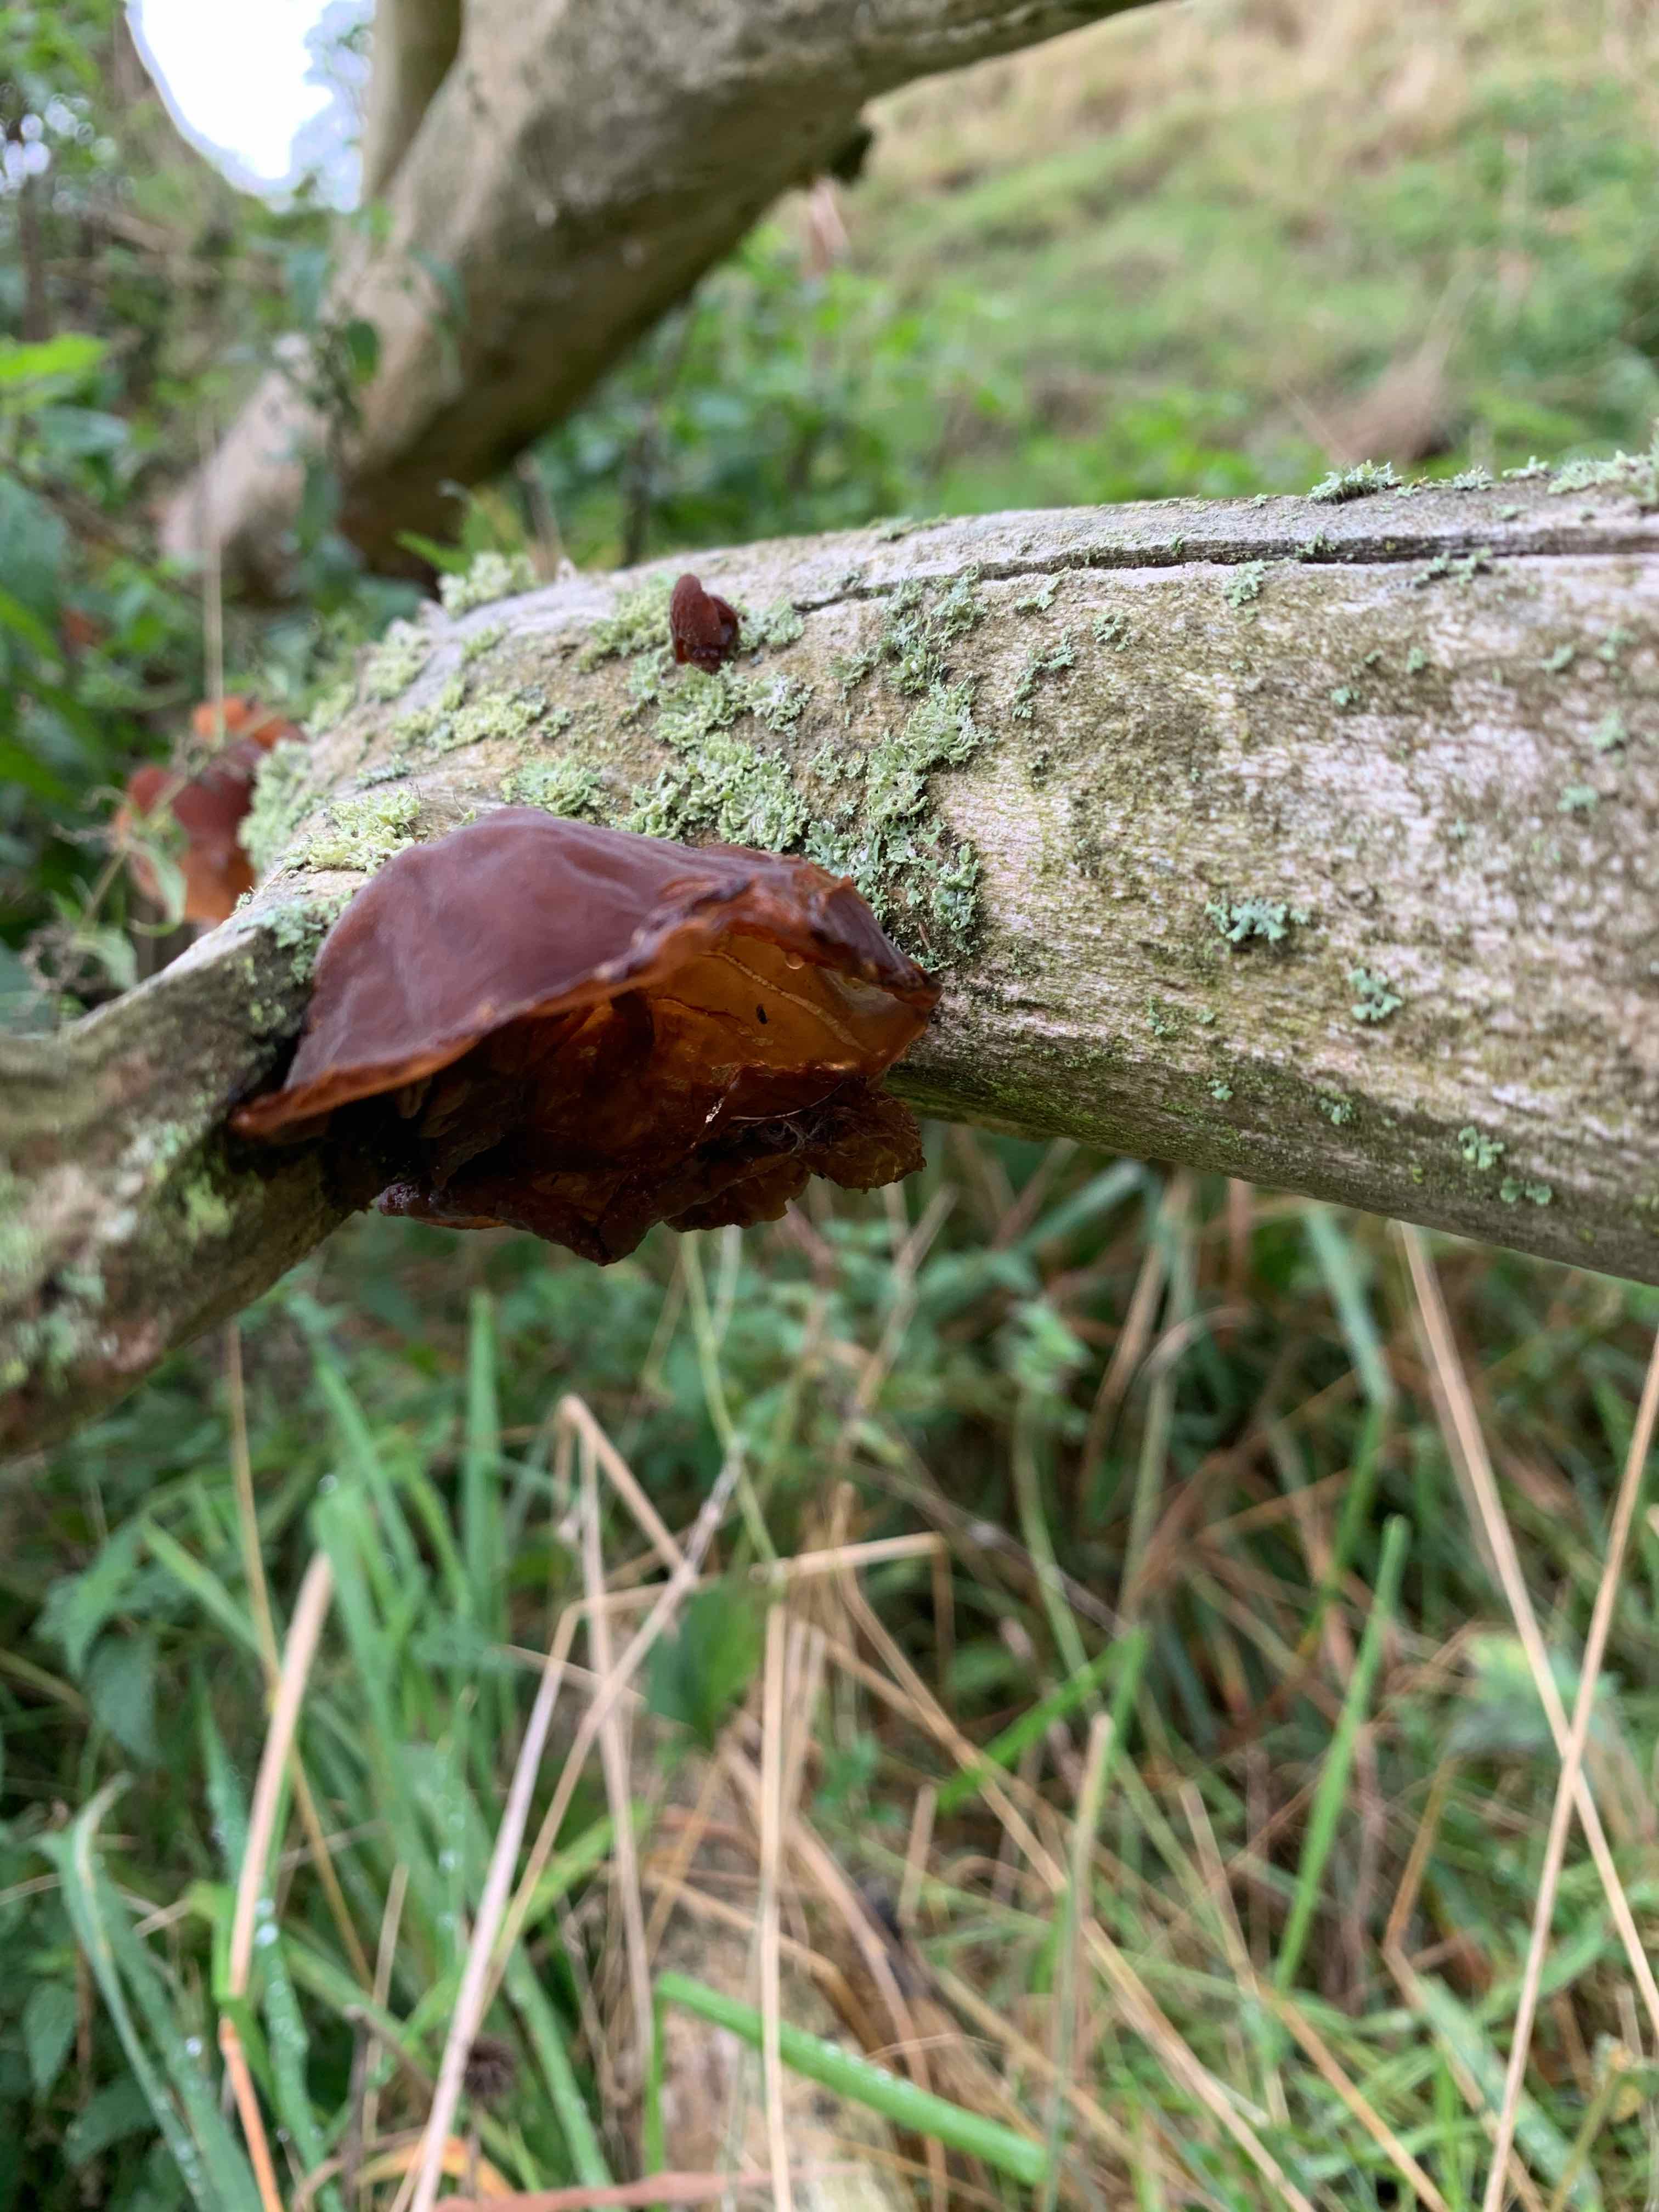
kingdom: Fungi
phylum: Basidiomycota
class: Agaricomycetes
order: Auriculariales
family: Auriculariaceae
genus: Auricularia
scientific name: Auricularia auricula-judae
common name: almindelig judasøre
